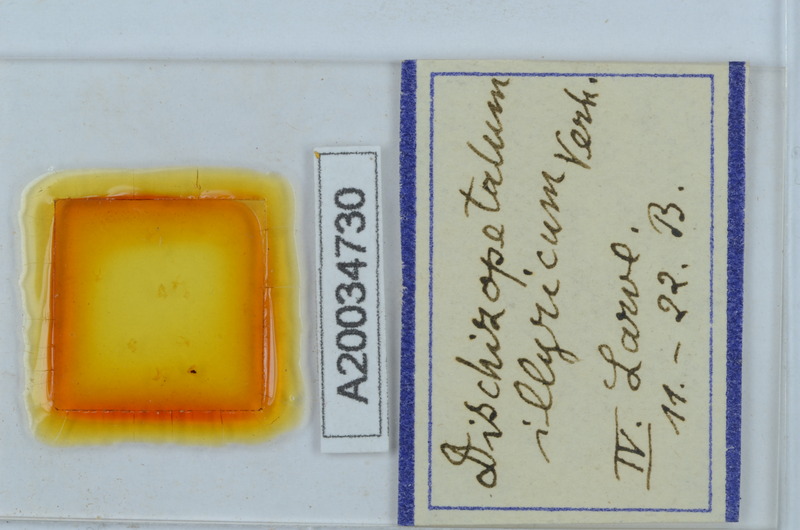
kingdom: Animalia
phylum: Arthropoda
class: Diplopoda
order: Callipodida
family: Schizopetalidae
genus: Dischizopetalum
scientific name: Dischizopetalum illyricum
